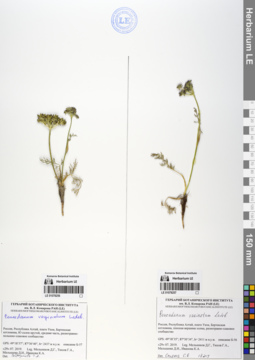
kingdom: Plantae
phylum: Tracheophyta
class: Magnoliopsida
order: Apiales
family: Apiaceae
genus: Peucedanum
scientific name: Peucedanum vaginatum
